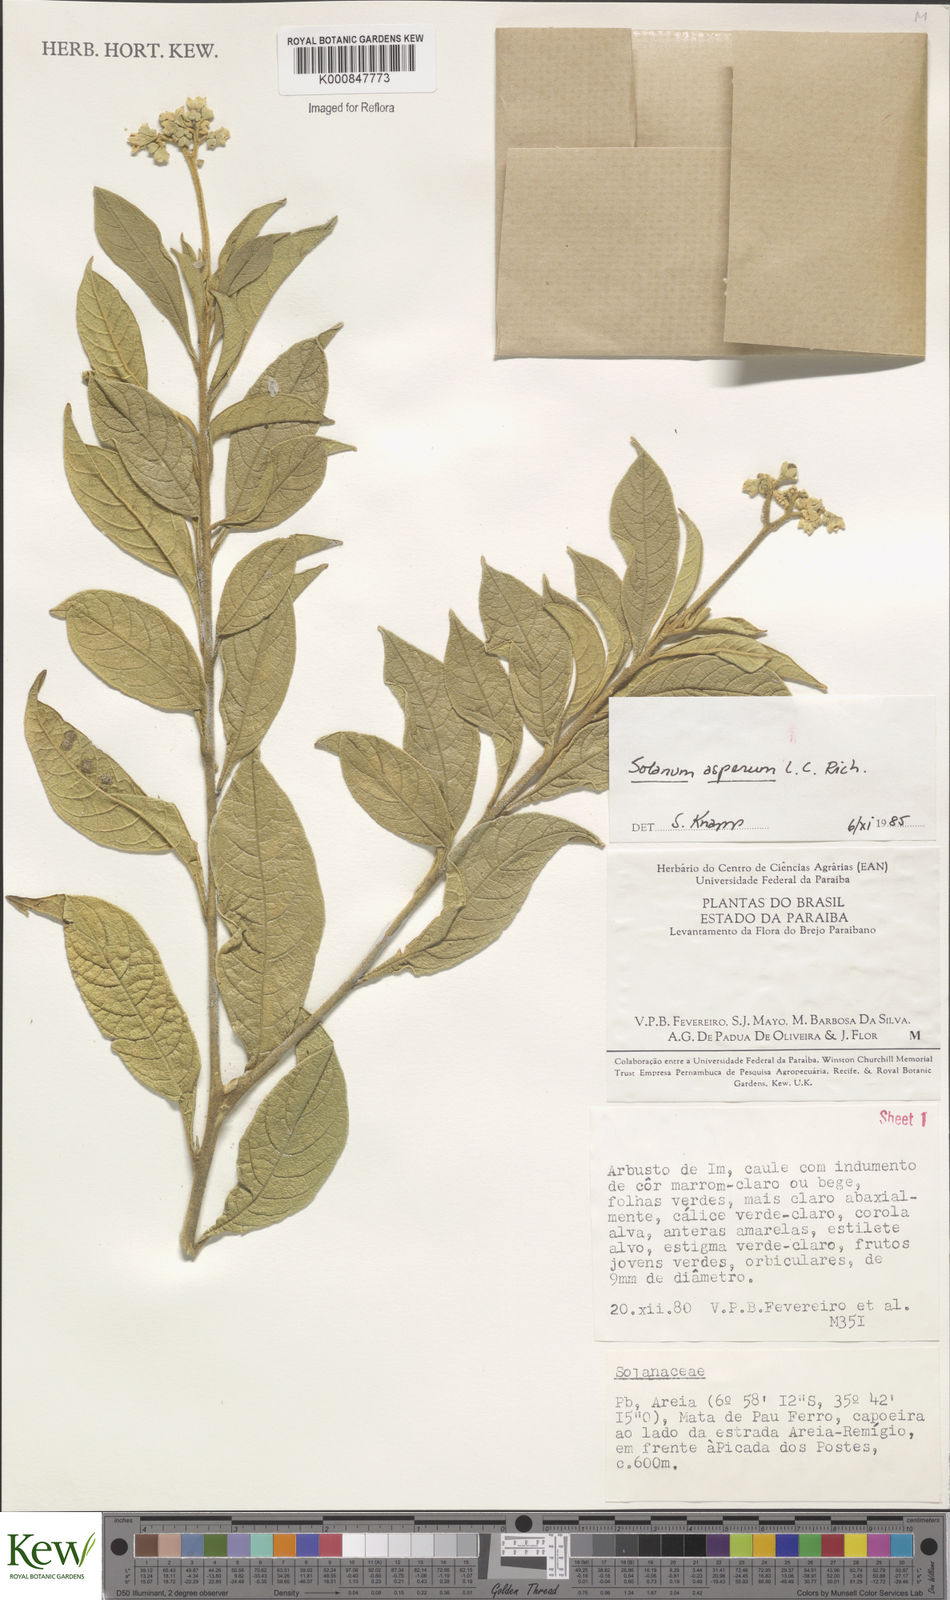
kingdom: Plantae
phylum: Tracheophyta
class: Magnoliopsida
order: Solanales
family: Solanaceae
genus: Solanum
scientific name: Solanum asperum
